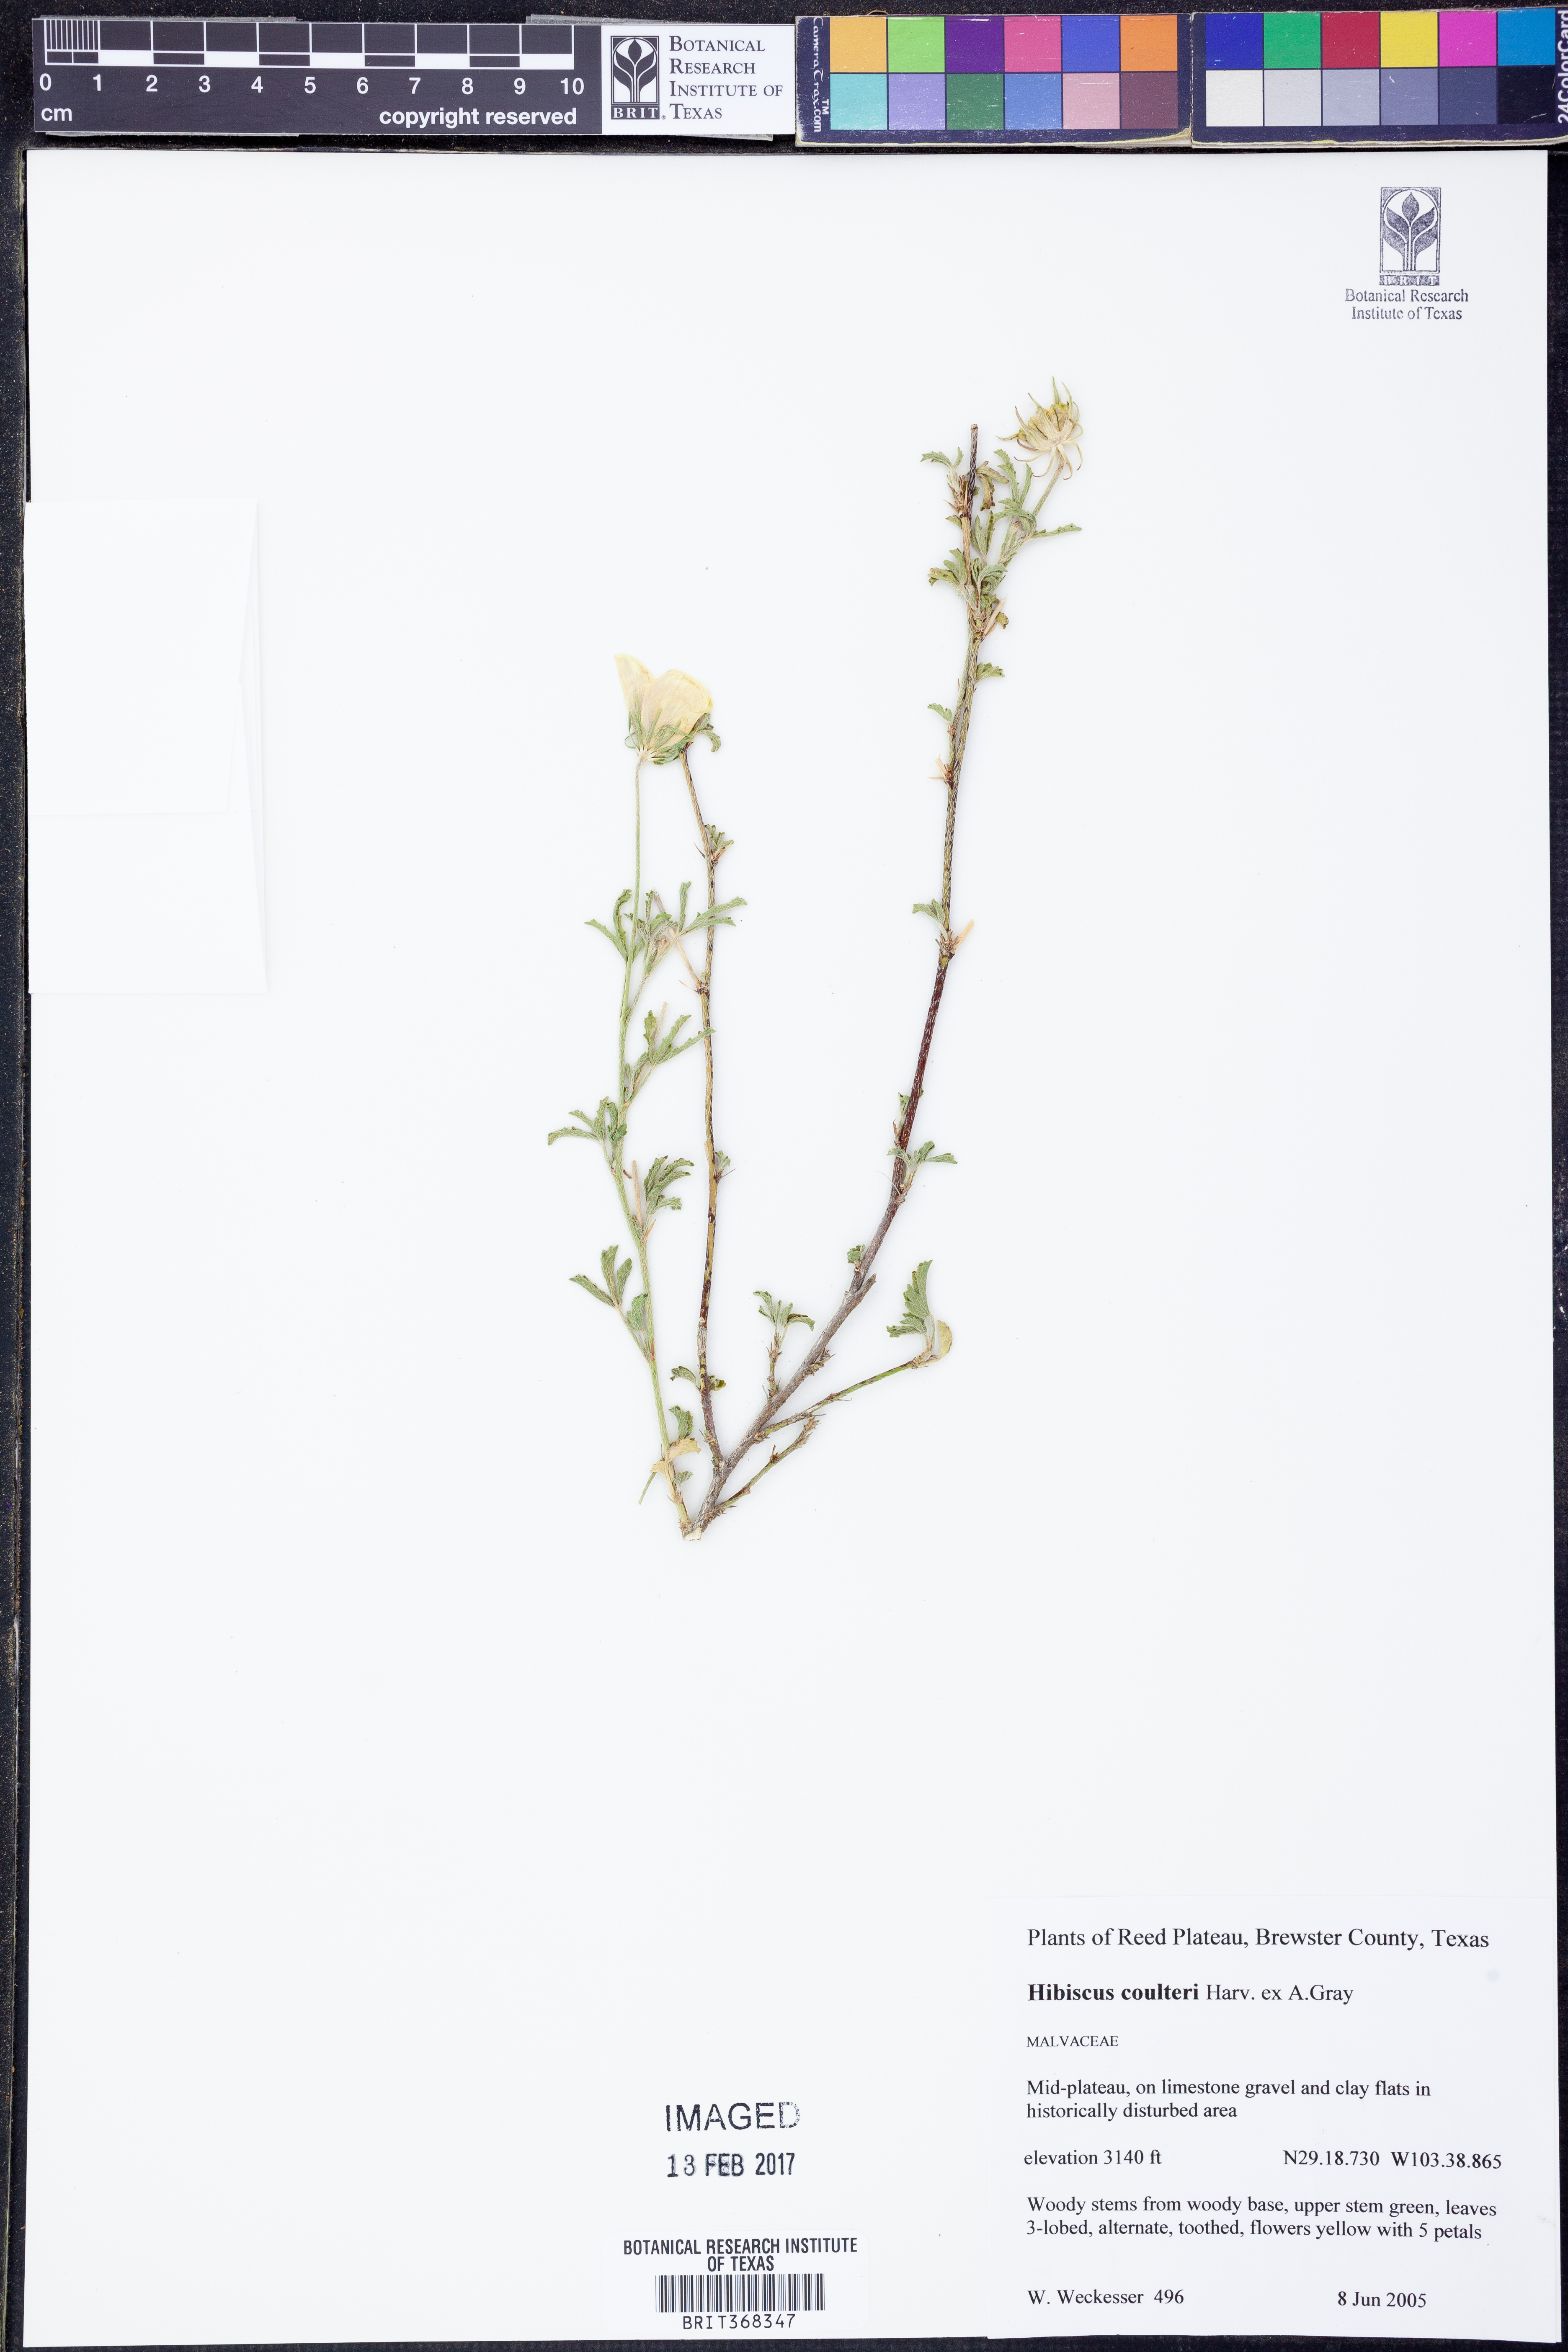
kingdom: Plantae
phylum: Tracheophyta
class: Magnoliopsida
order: Malvales
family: Malvaceae
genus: Hibiscus
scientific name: Hibiscus coulteri
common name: Desert rose-mallow
